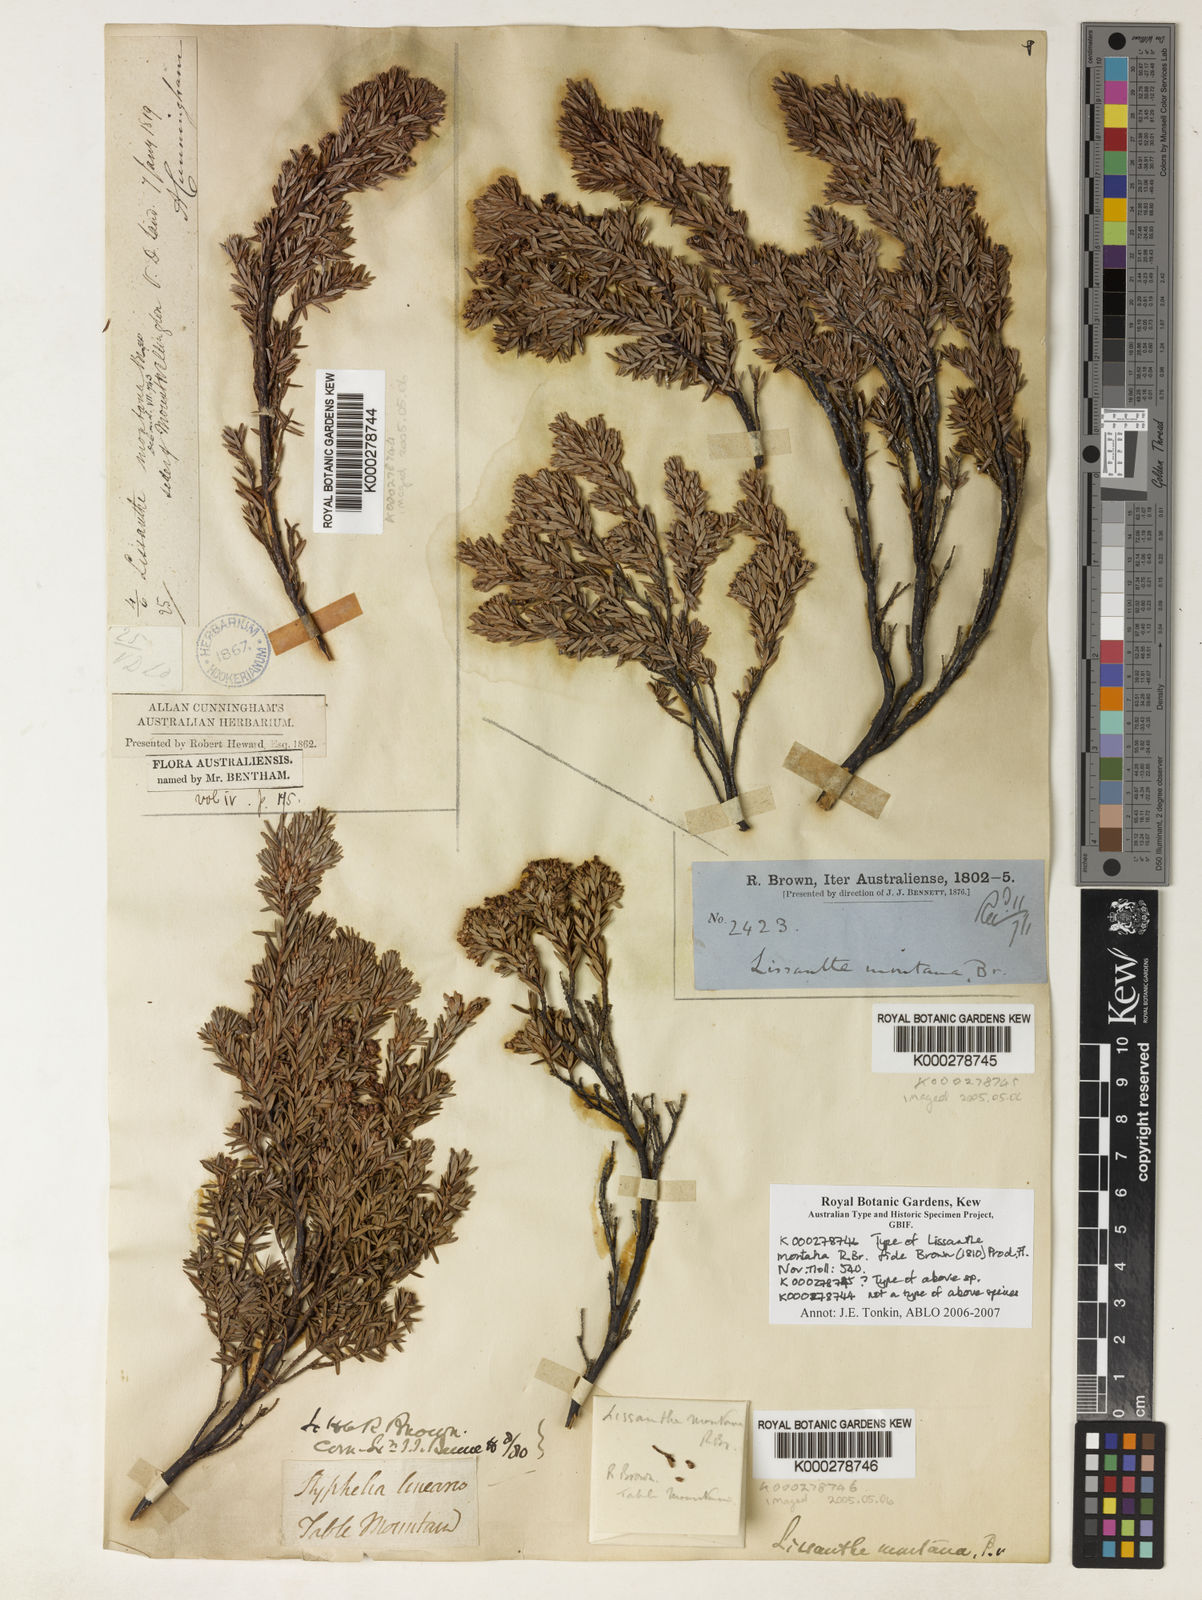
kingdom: Plantae
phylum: Tracheophyta
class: Magnoliopsida
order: Ericales
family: Ericaceae
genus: Acrothamnus
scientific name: Acrothamnus montanus
